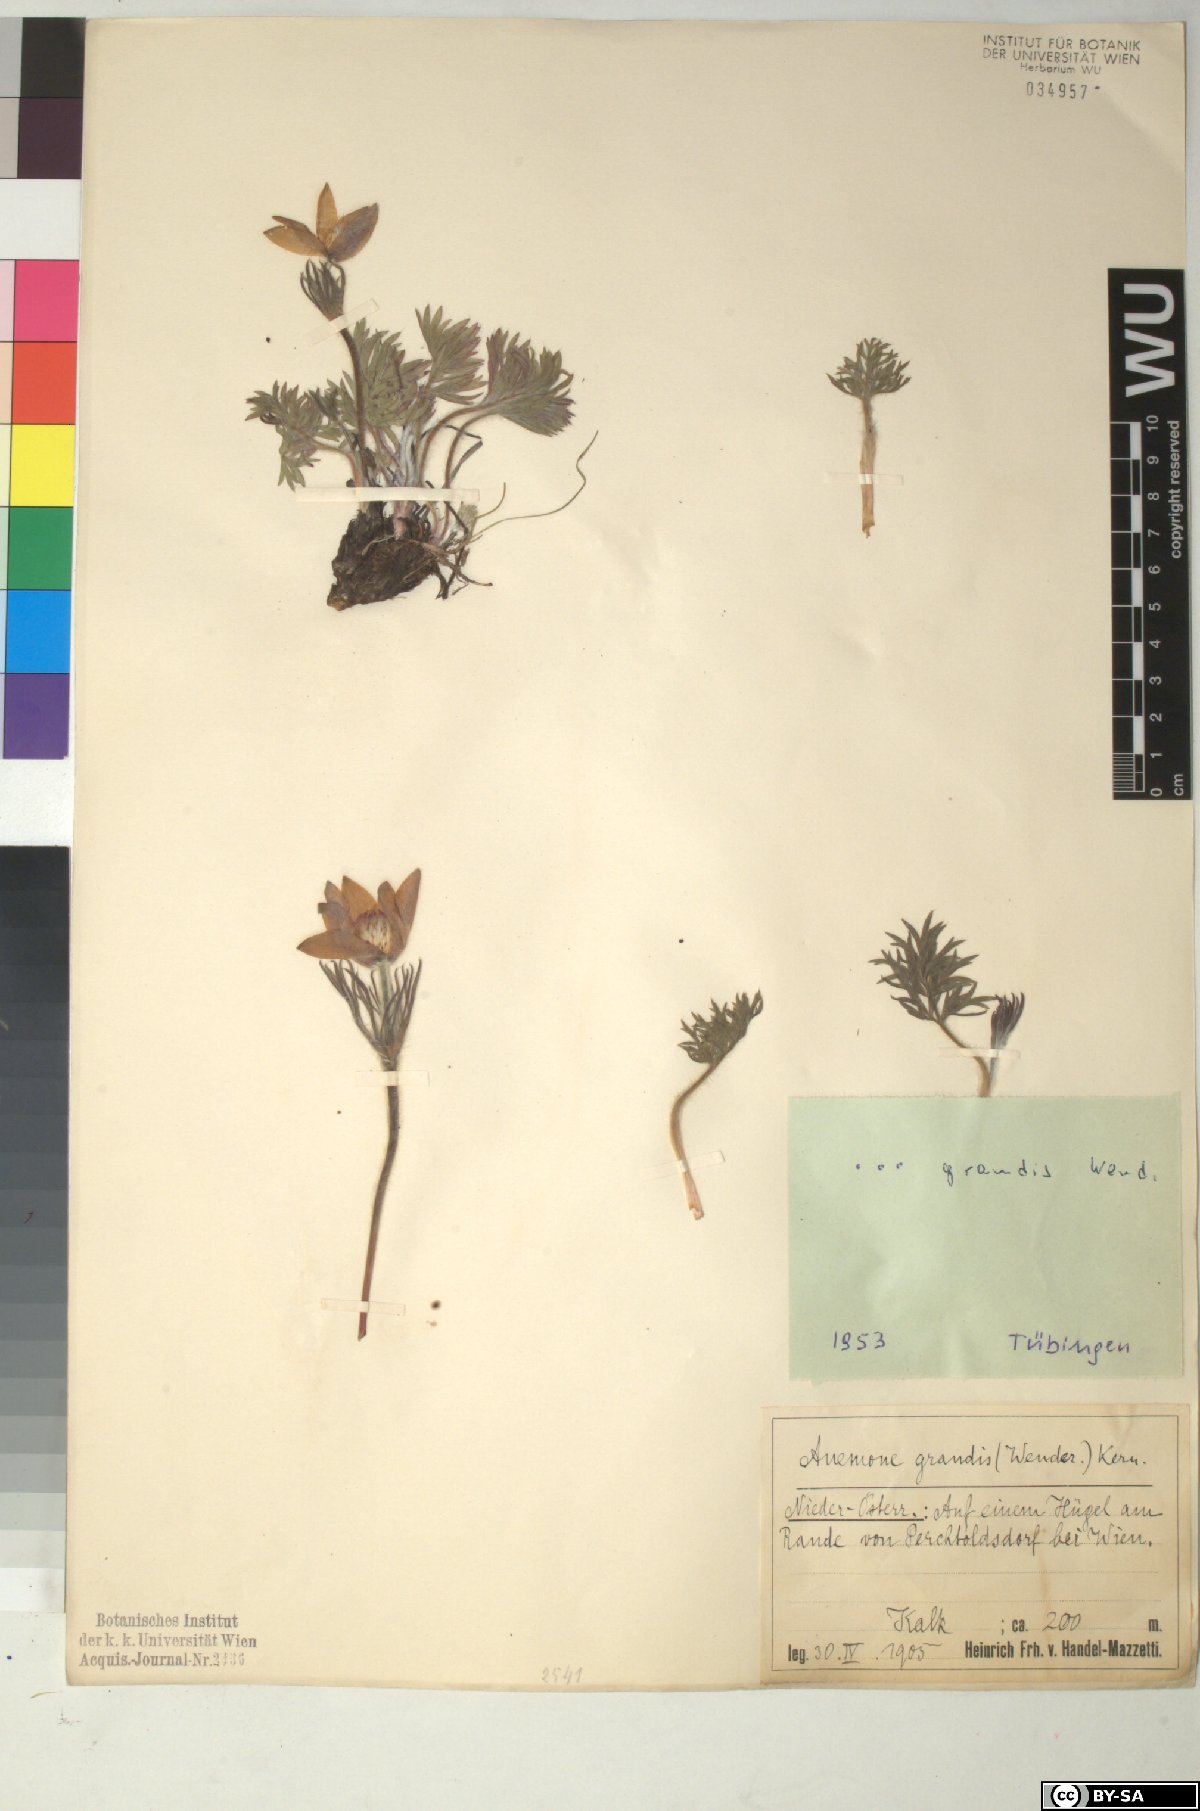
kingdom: Plantae
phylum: Tracheophyta
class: Magnoliopsida
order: Ranunculales
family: Ranunculaceae
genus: Pulsatilla
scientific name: Pulsatilla grandis
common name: Greater pasque flower
